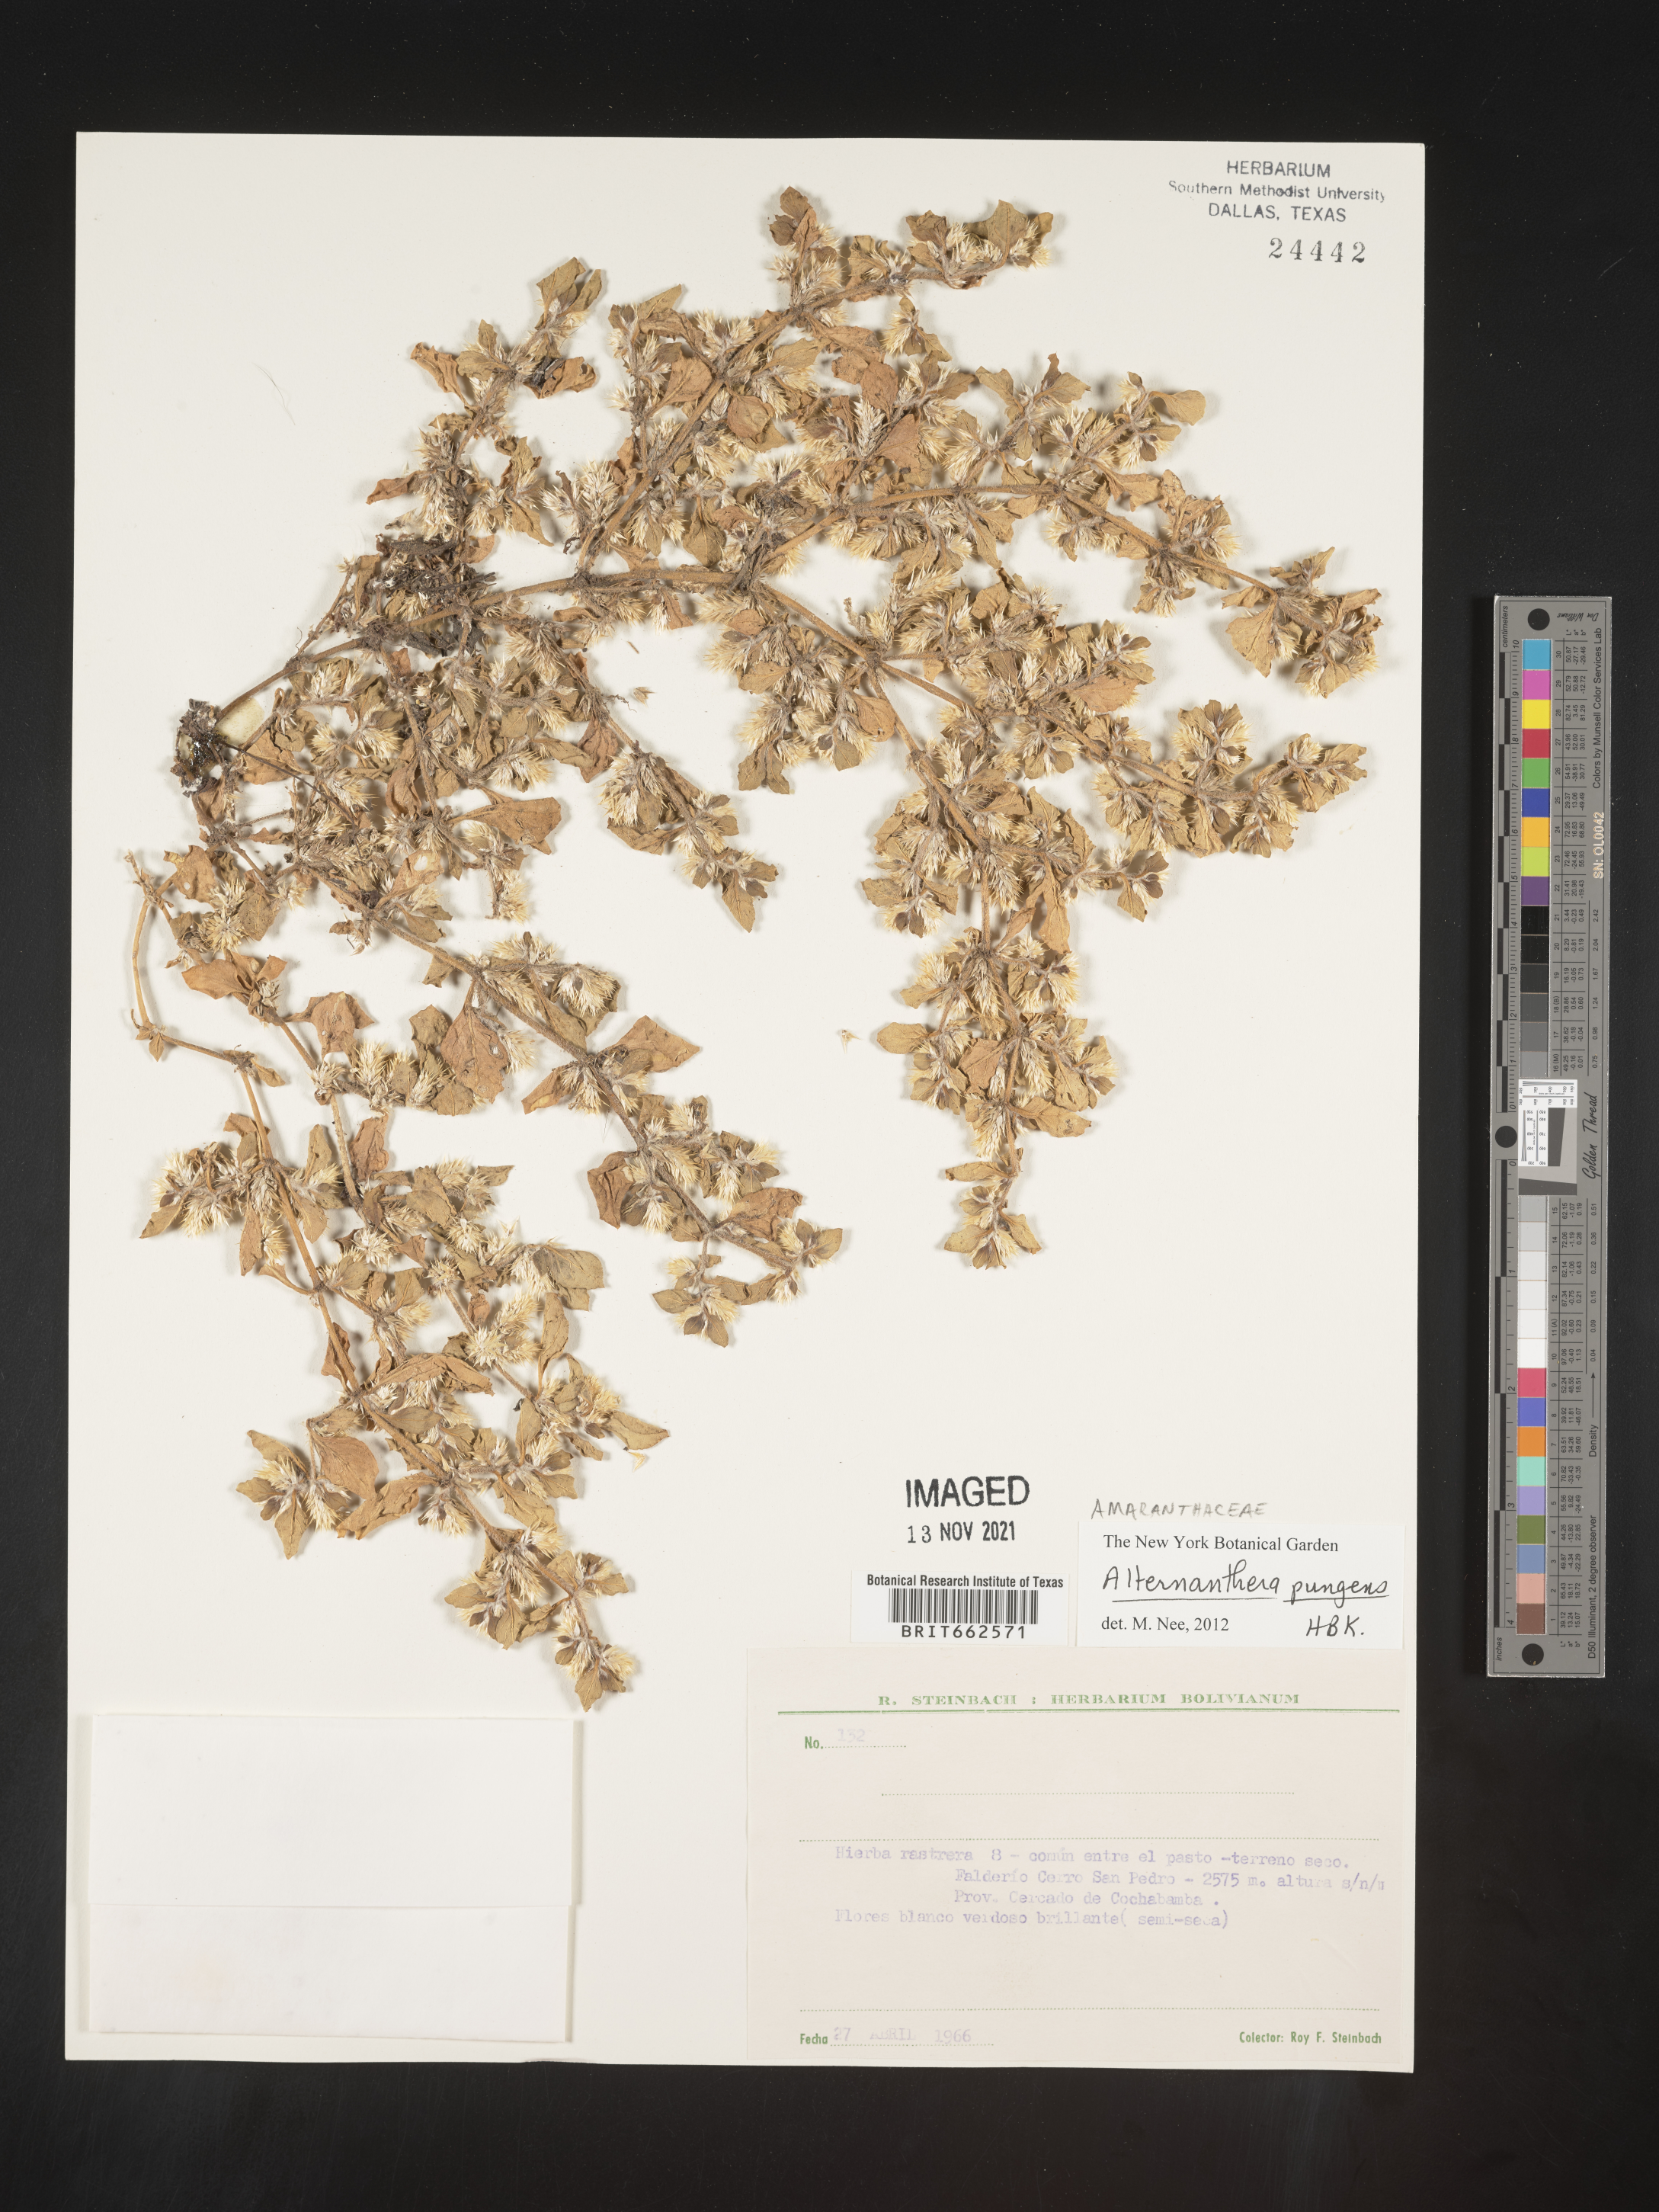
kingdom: Plantae
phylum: Tracheophyta
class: Magnoliopsida
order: Caryophyllales
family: Amaranthaceae
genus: Alternanthera
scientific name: Alternanthera
